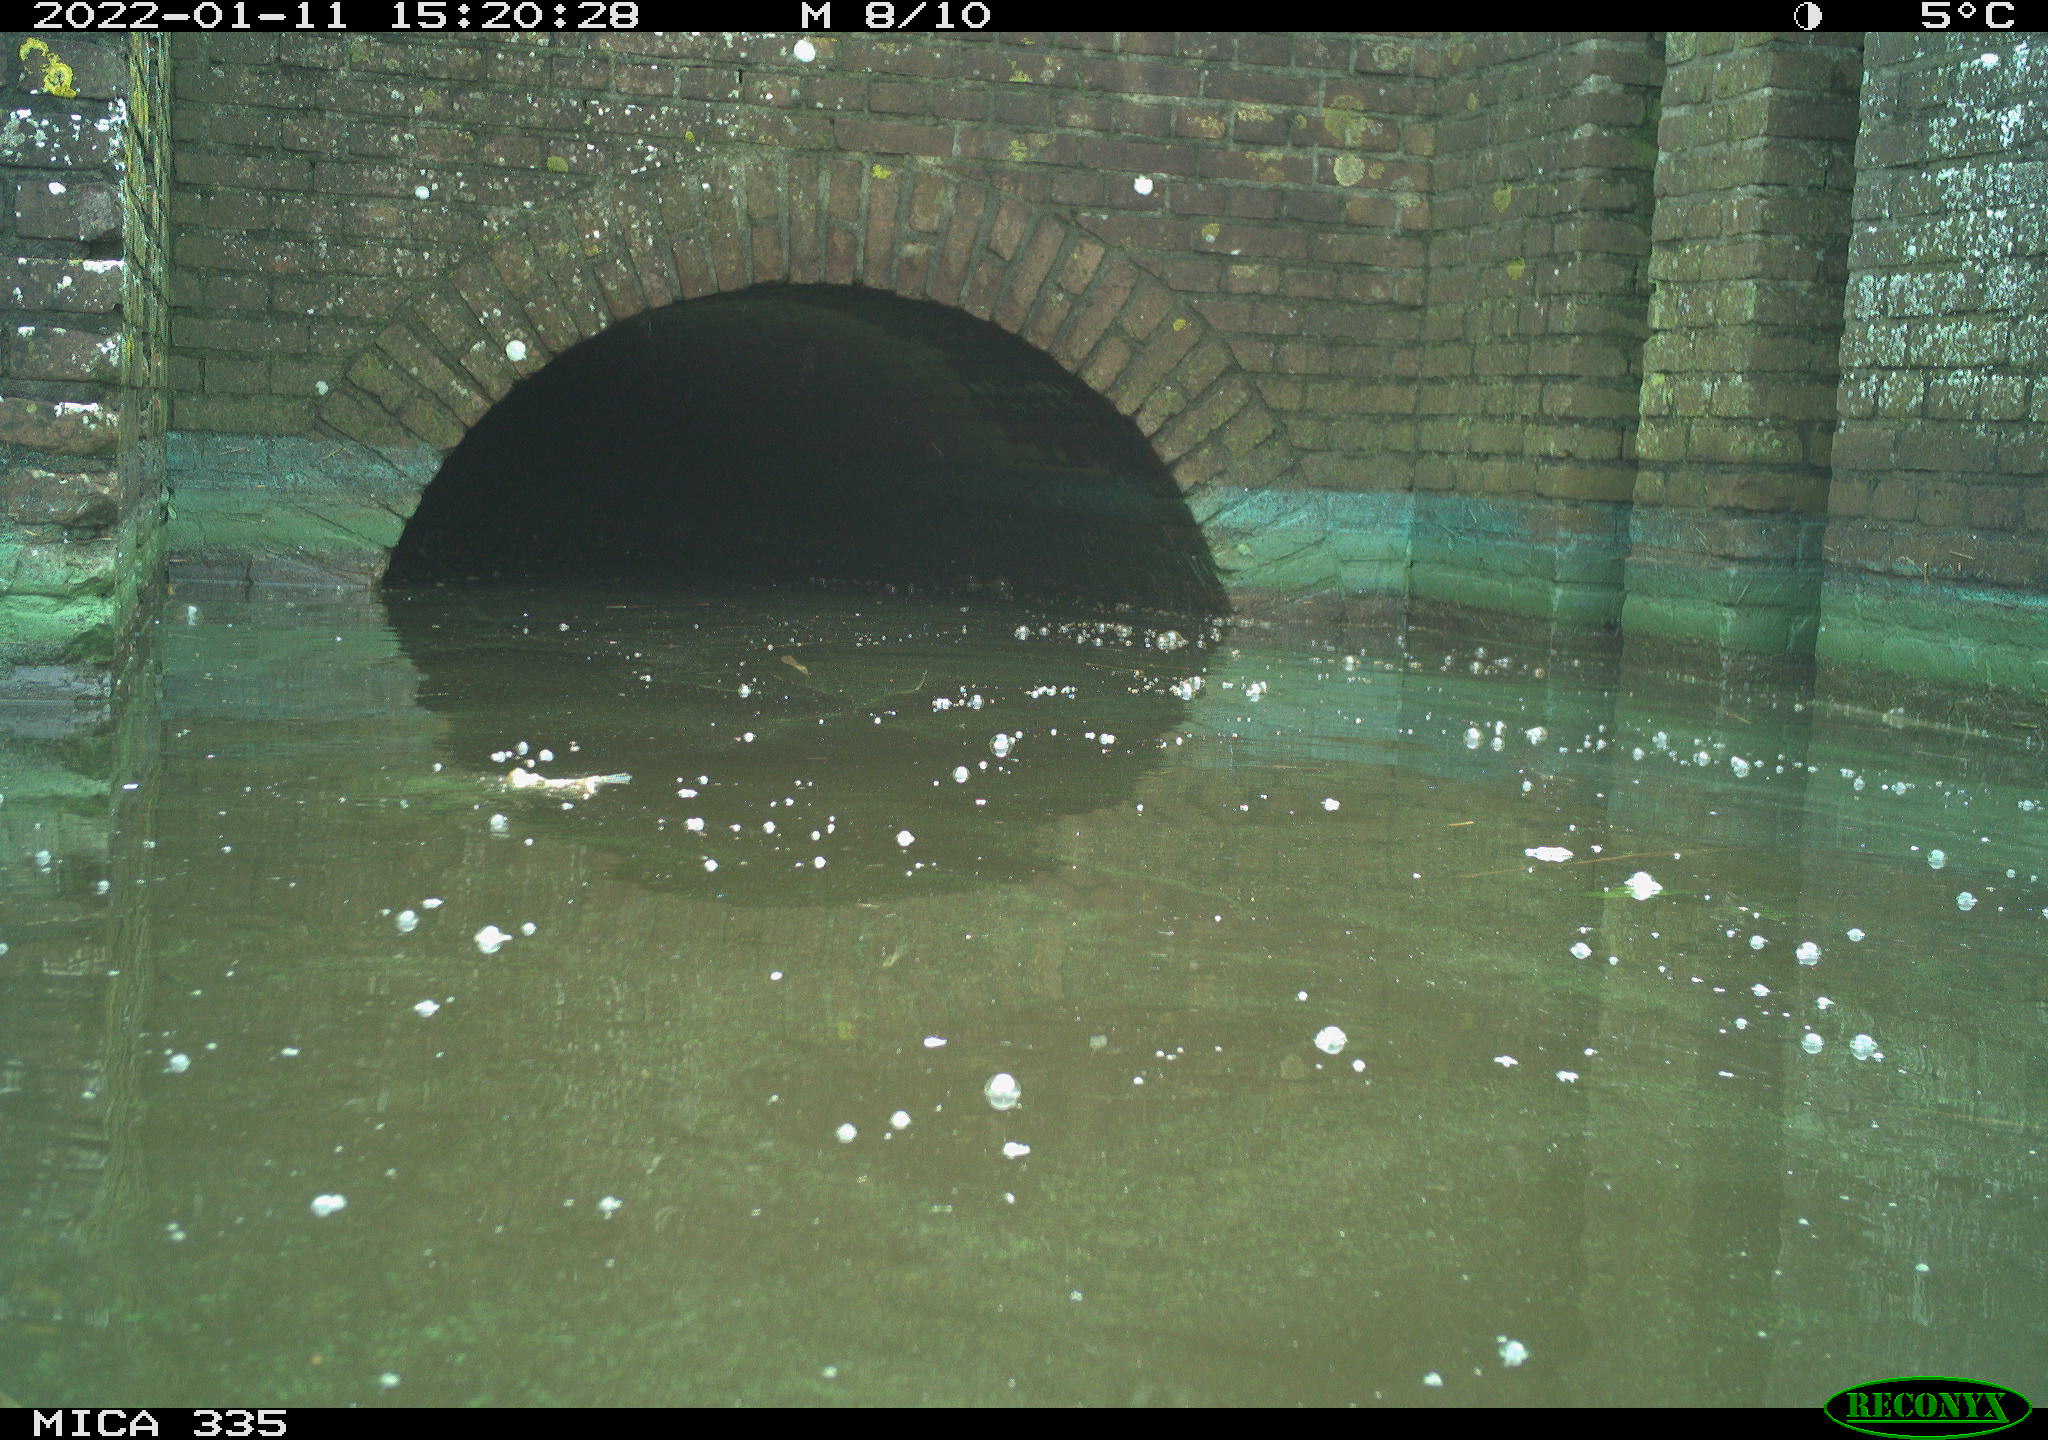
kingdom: Animalia
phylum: Chordata
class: Aves
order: Gruiformes
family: Rallidae
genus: Fulica
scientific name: Fulica atra
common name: Eurasian coot
